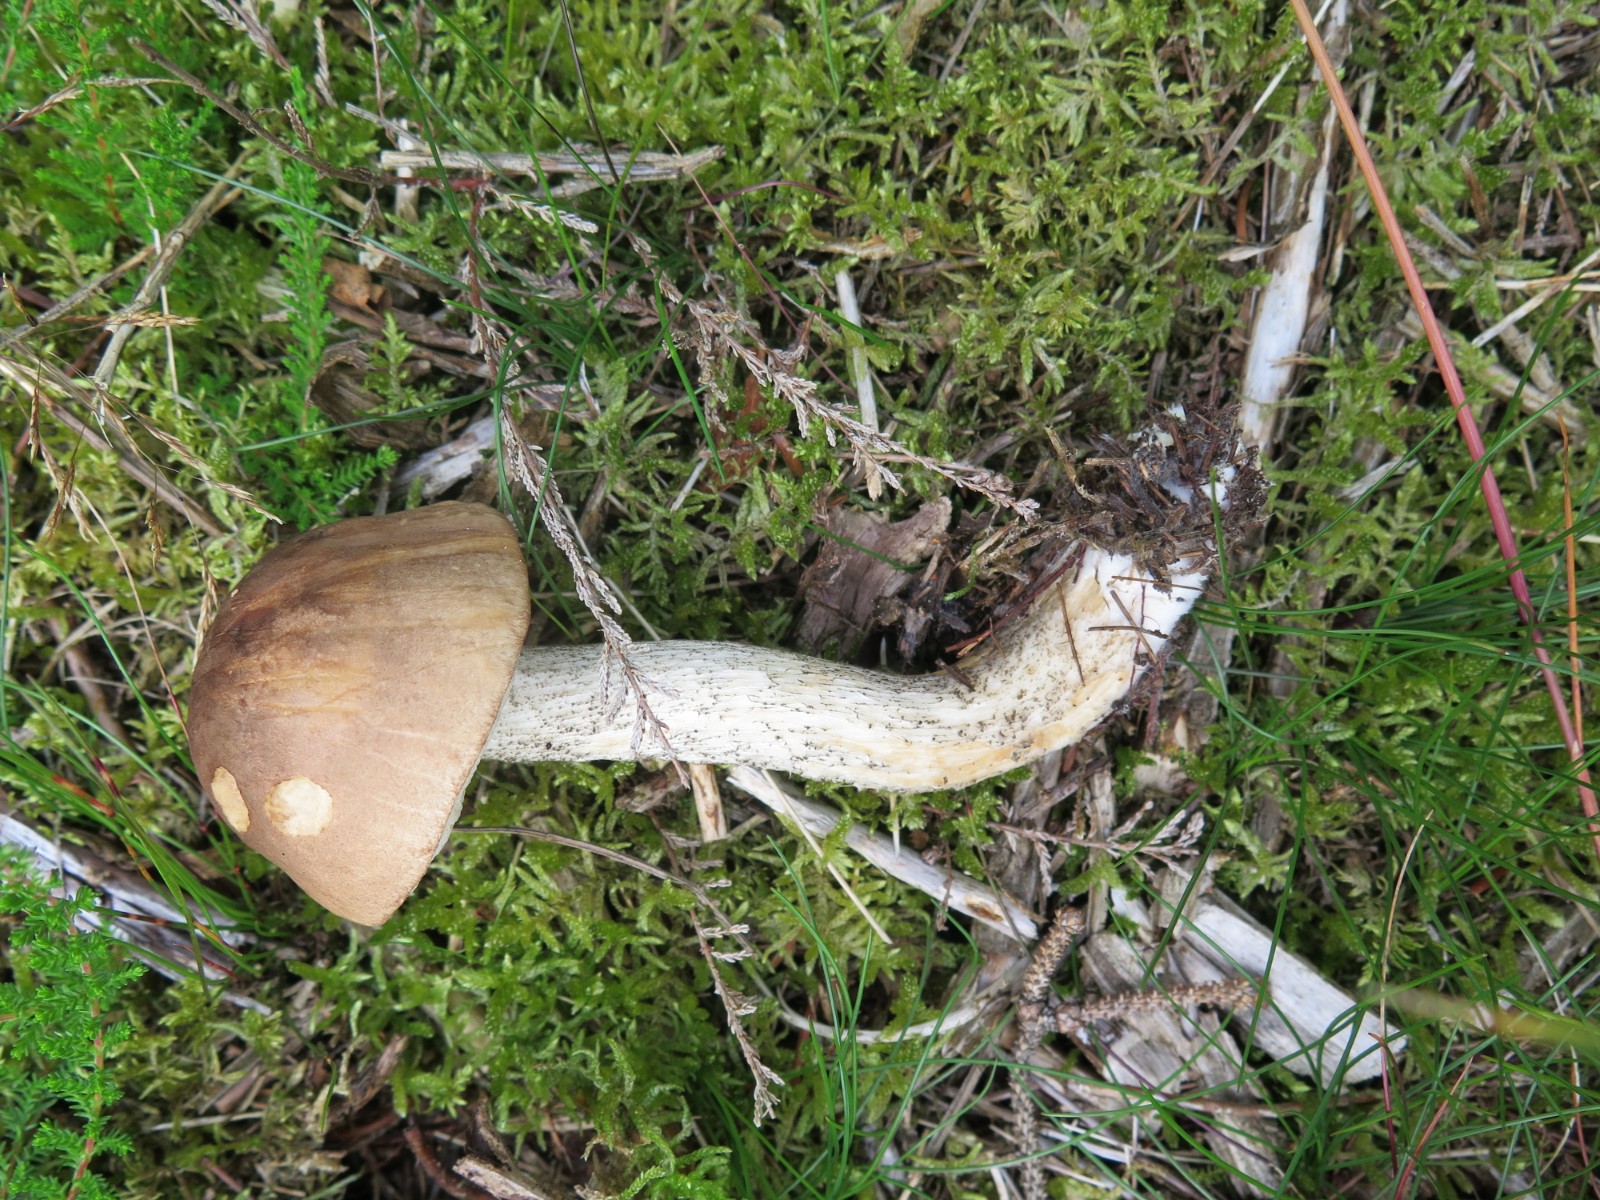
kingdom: Fungi
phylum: Basidiomycota
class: Agaricomycetes
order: Boletales
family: Boletaceae
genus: Leccinum
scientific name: Leccinum cyaneobasileucum
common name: almindelig skælrørhat
